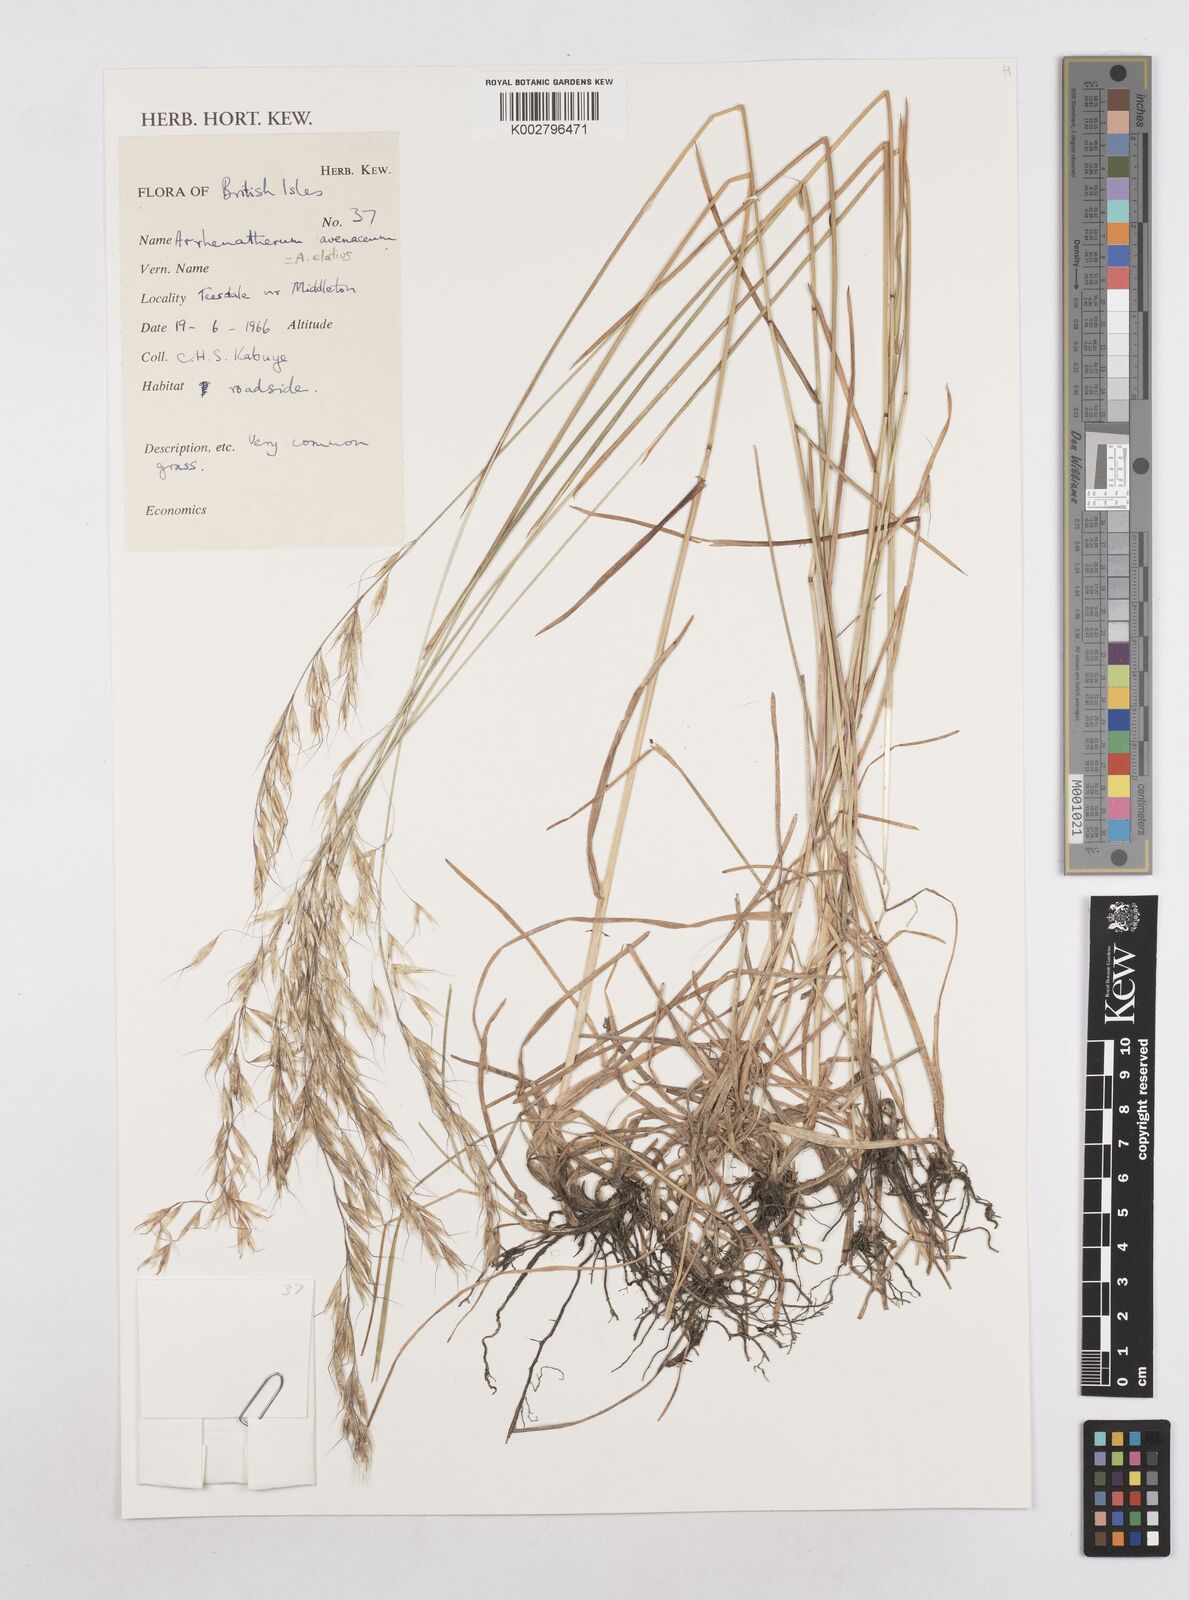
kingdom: Plantae
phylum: Tracheophyta
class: Liliopsida
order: Poales
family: Poaceae
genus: Arrhenatherum
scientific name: Arrhenatherum elatius
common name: Tall oatgrass
